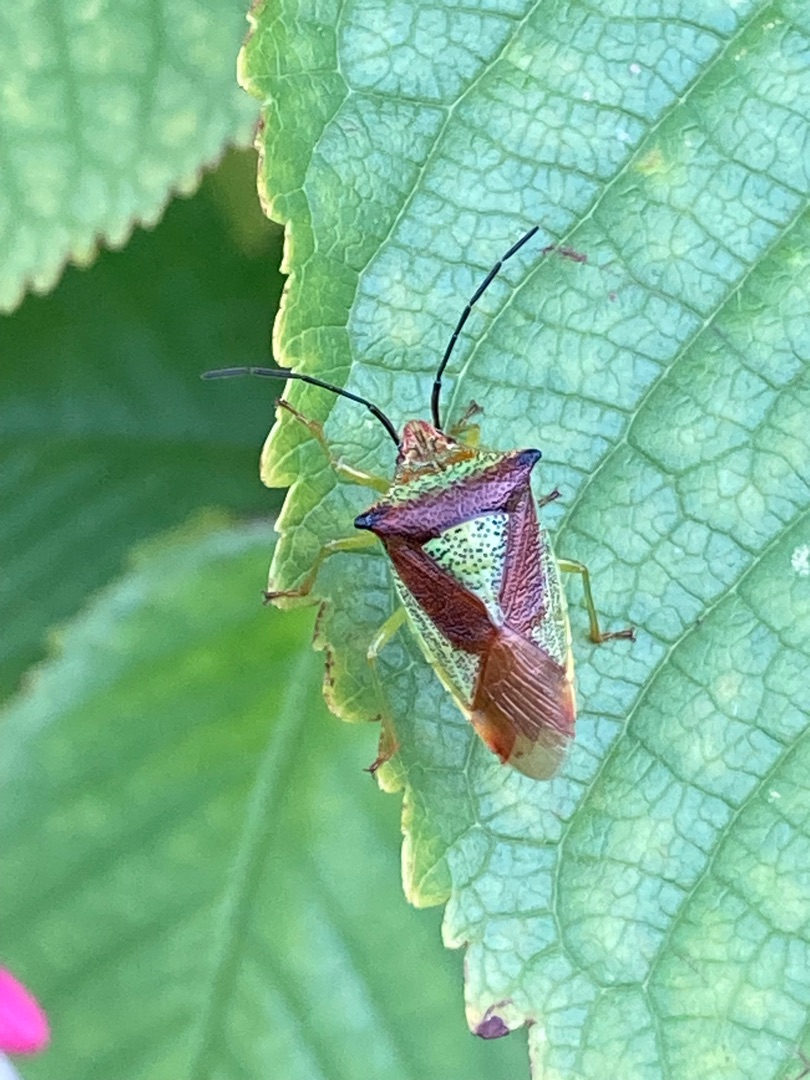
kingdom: Animalia
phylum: Arthropoda
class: Insecta
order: Hemiptera
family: Acanthosomatidae
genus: Acanthosoma
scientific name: Acanthosoma haemorrhoidale
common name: Stor løvtæge
